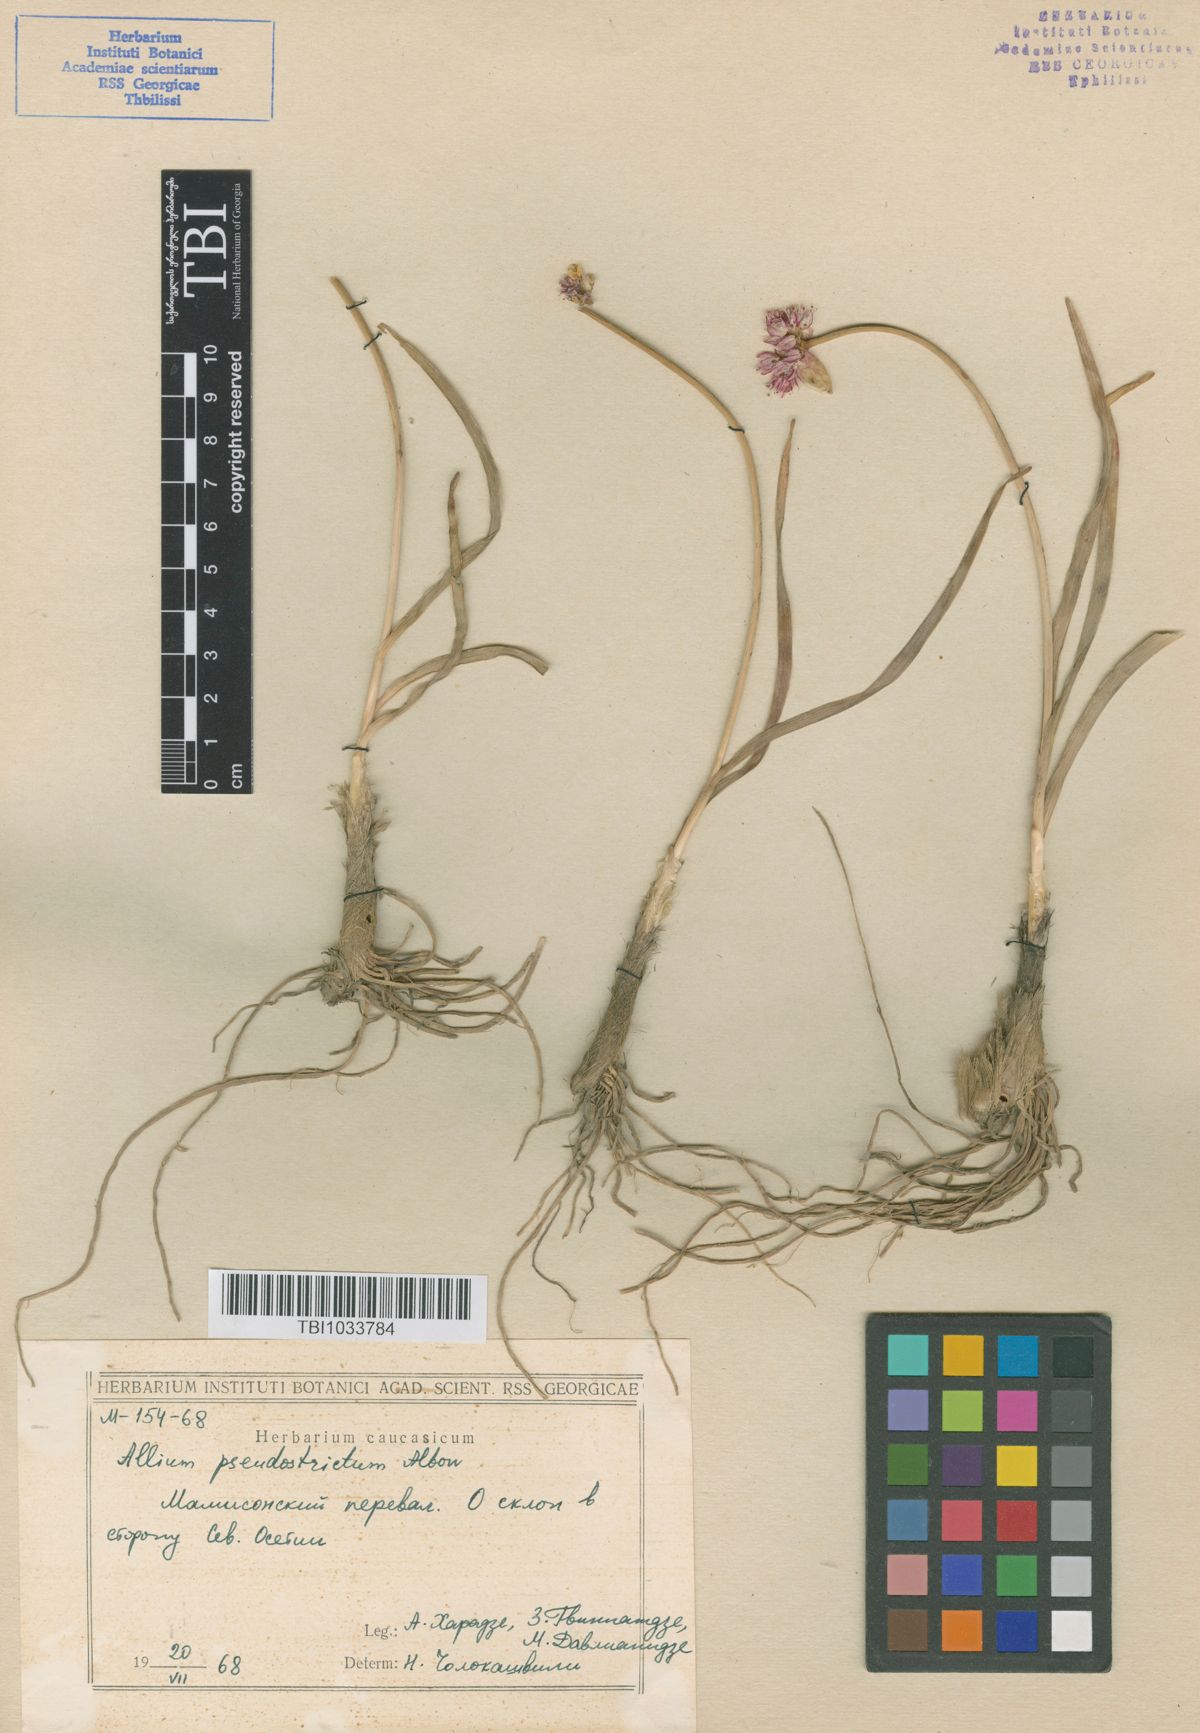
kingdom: Plantae
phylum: Tracheophyta
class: Liliopsida
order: Asparagales
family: Amaryllidaceae
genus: Allium
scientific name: Allium pseudostrictum
